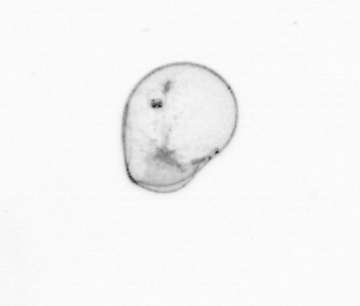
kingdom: Chromista
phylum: Myzozoa
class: Dinophyceae
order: Noctilucales
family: Noctilucaceae
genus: Noctiluca
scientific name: Noctiluca scintillans
